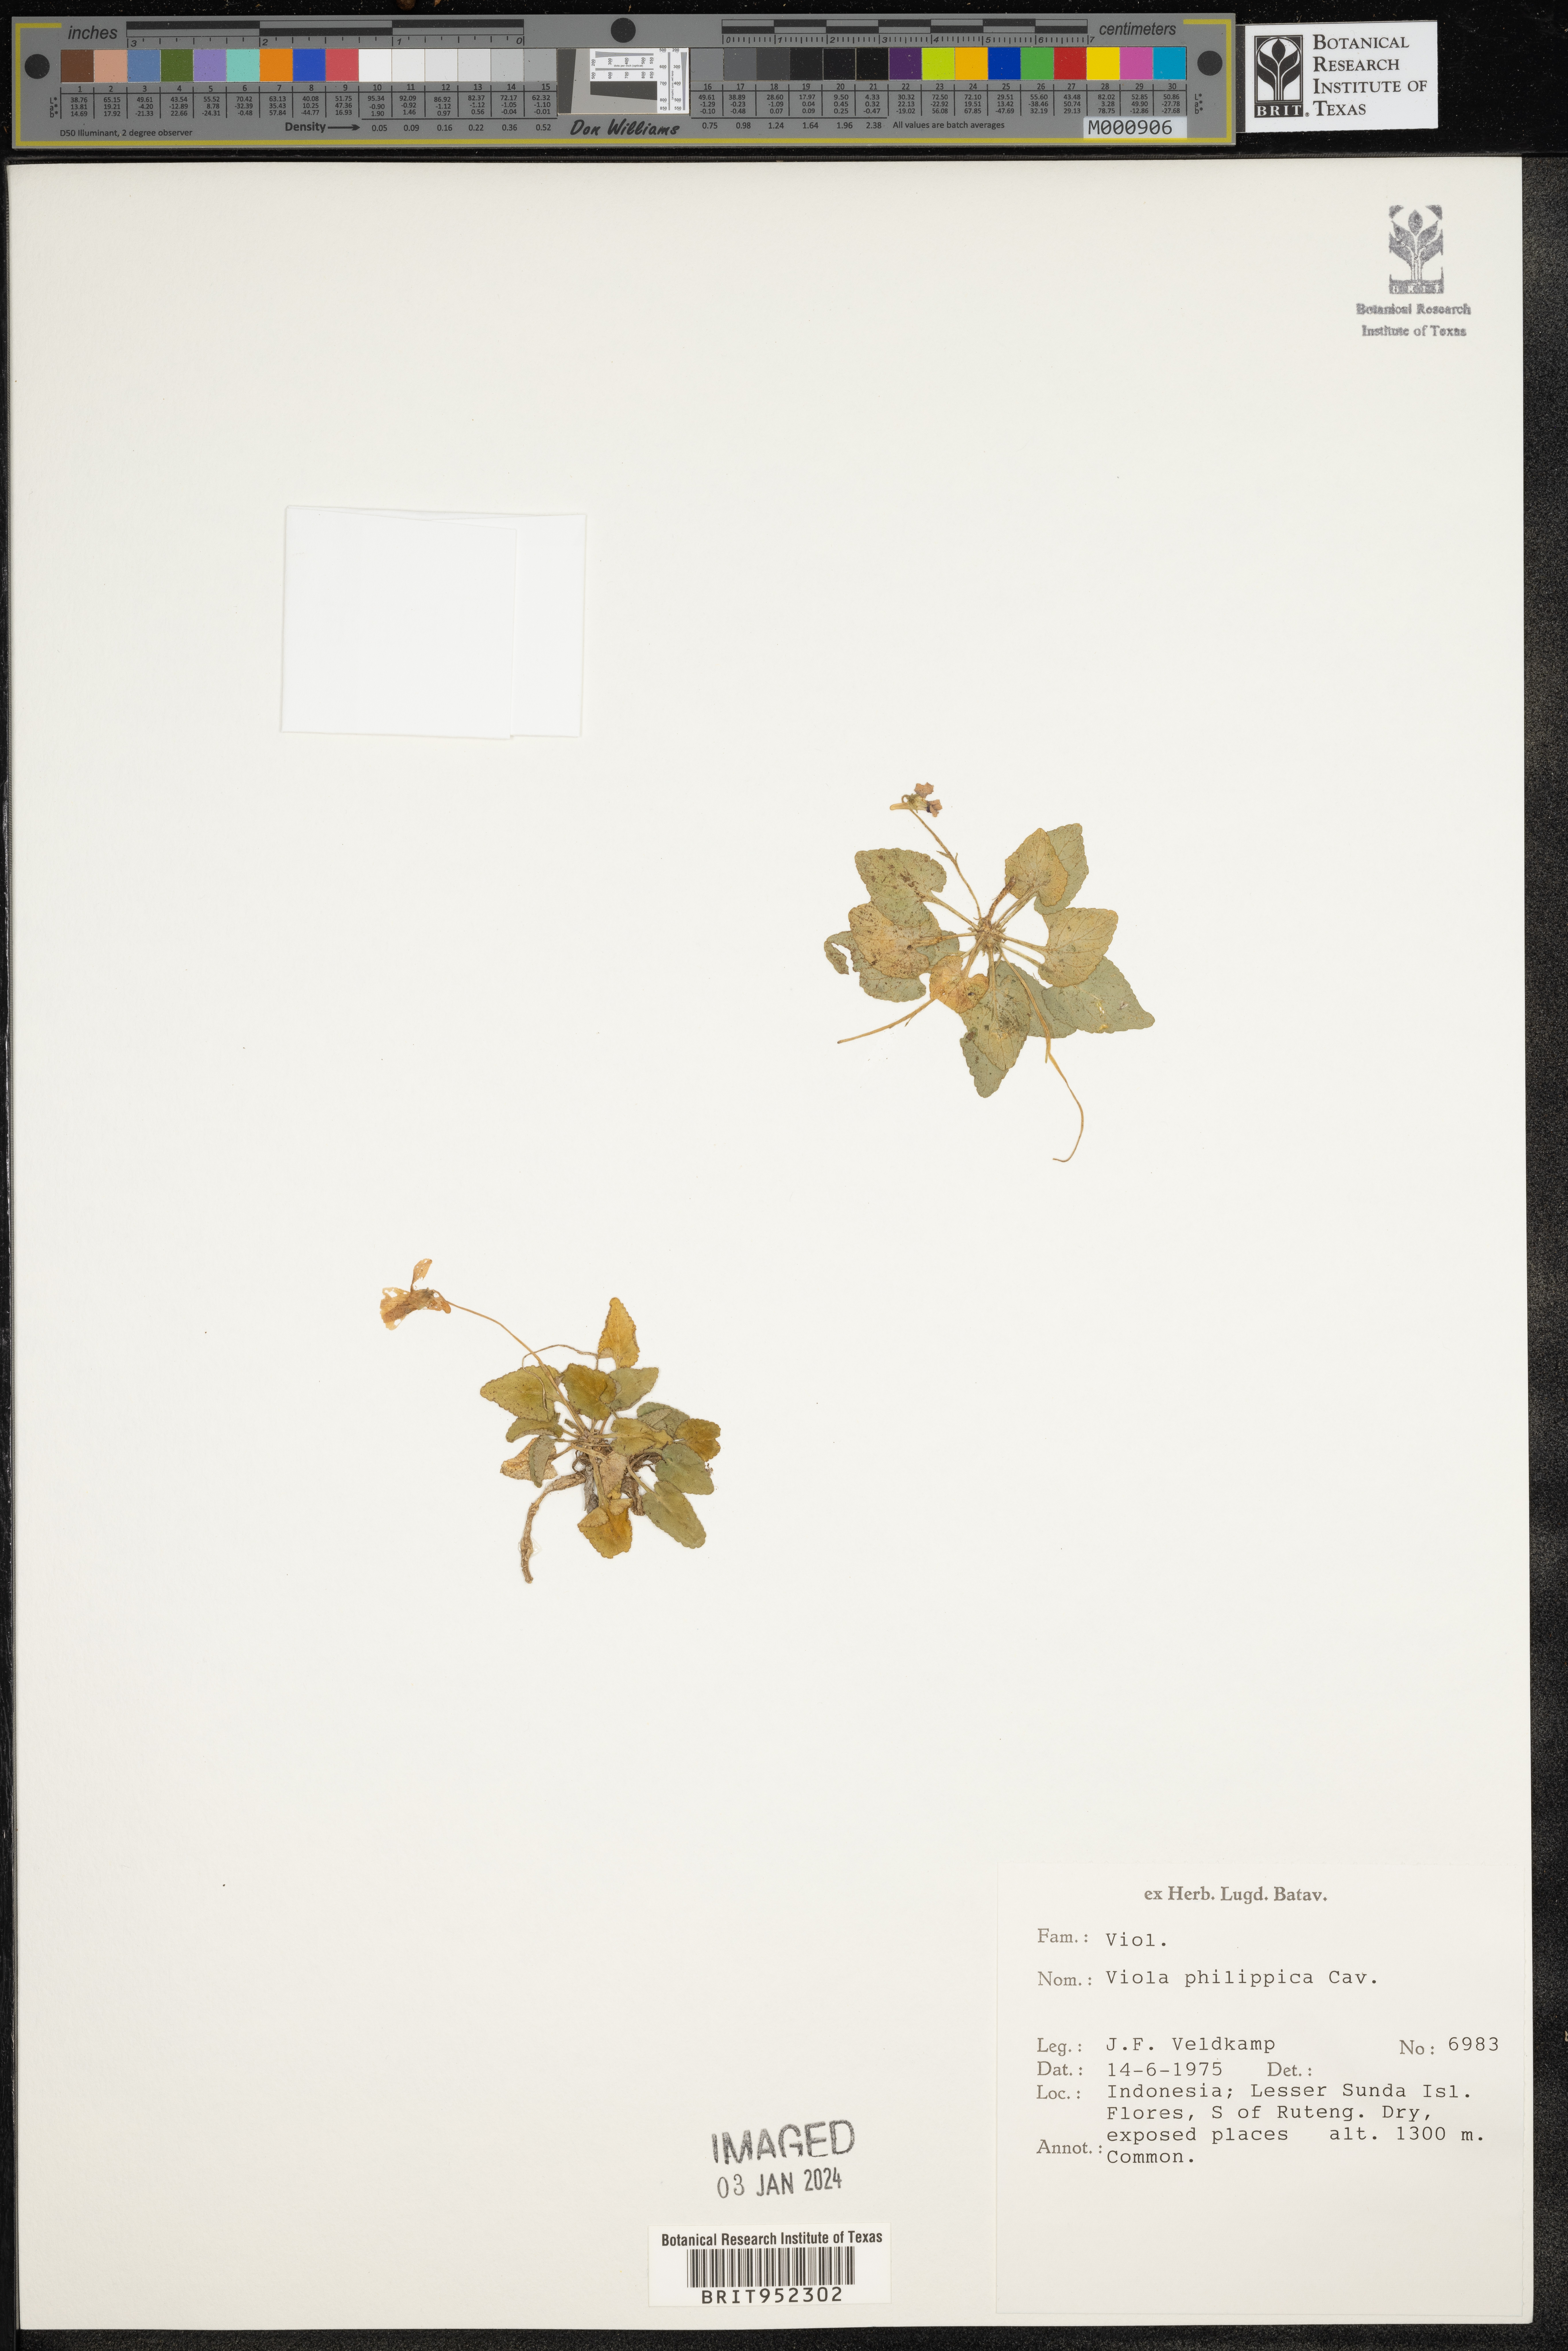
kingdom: Plantae
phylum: Tracheophyta
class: Magnoliopsida
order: Malpighiales
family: Violaceae
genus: Viola
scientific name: Viola
